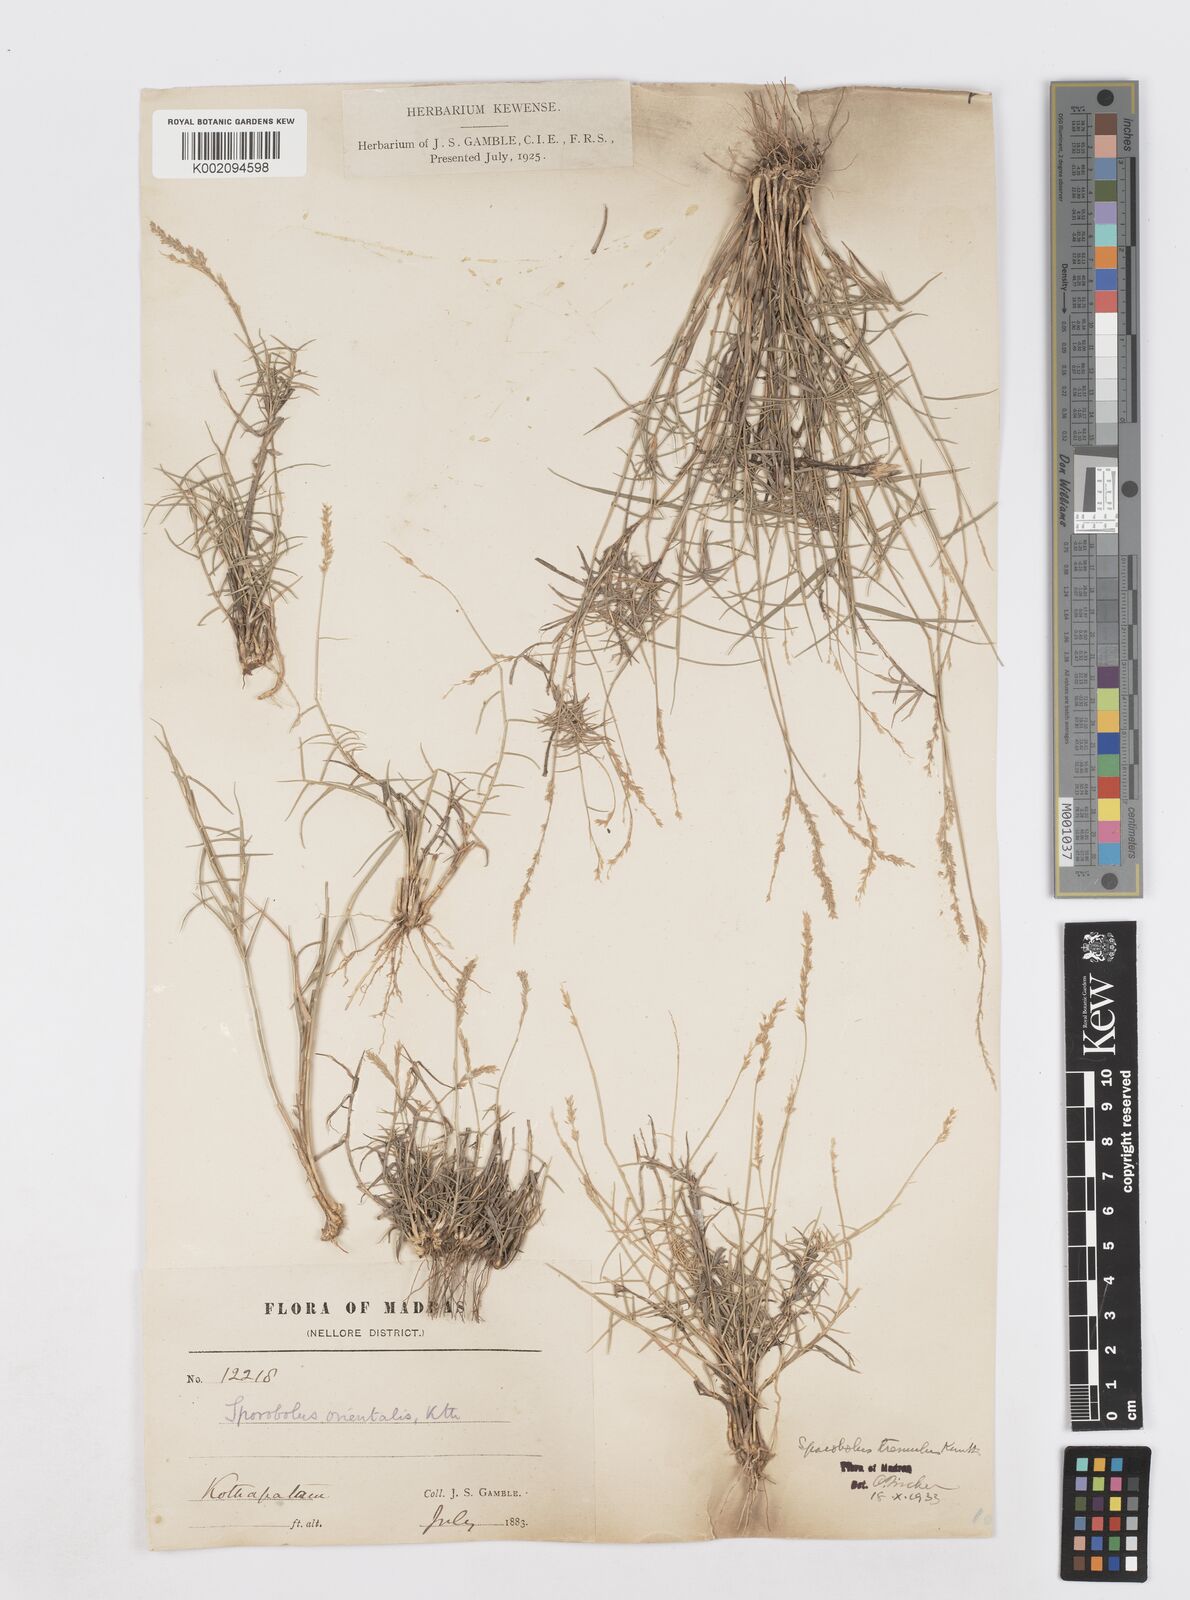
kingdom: Plantae
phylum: Tracheophyta
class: Liliopsida
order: Poales
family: Poaceae
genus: Sporobolus
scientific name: Sporobolus virginicus
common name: Beach dropseed
